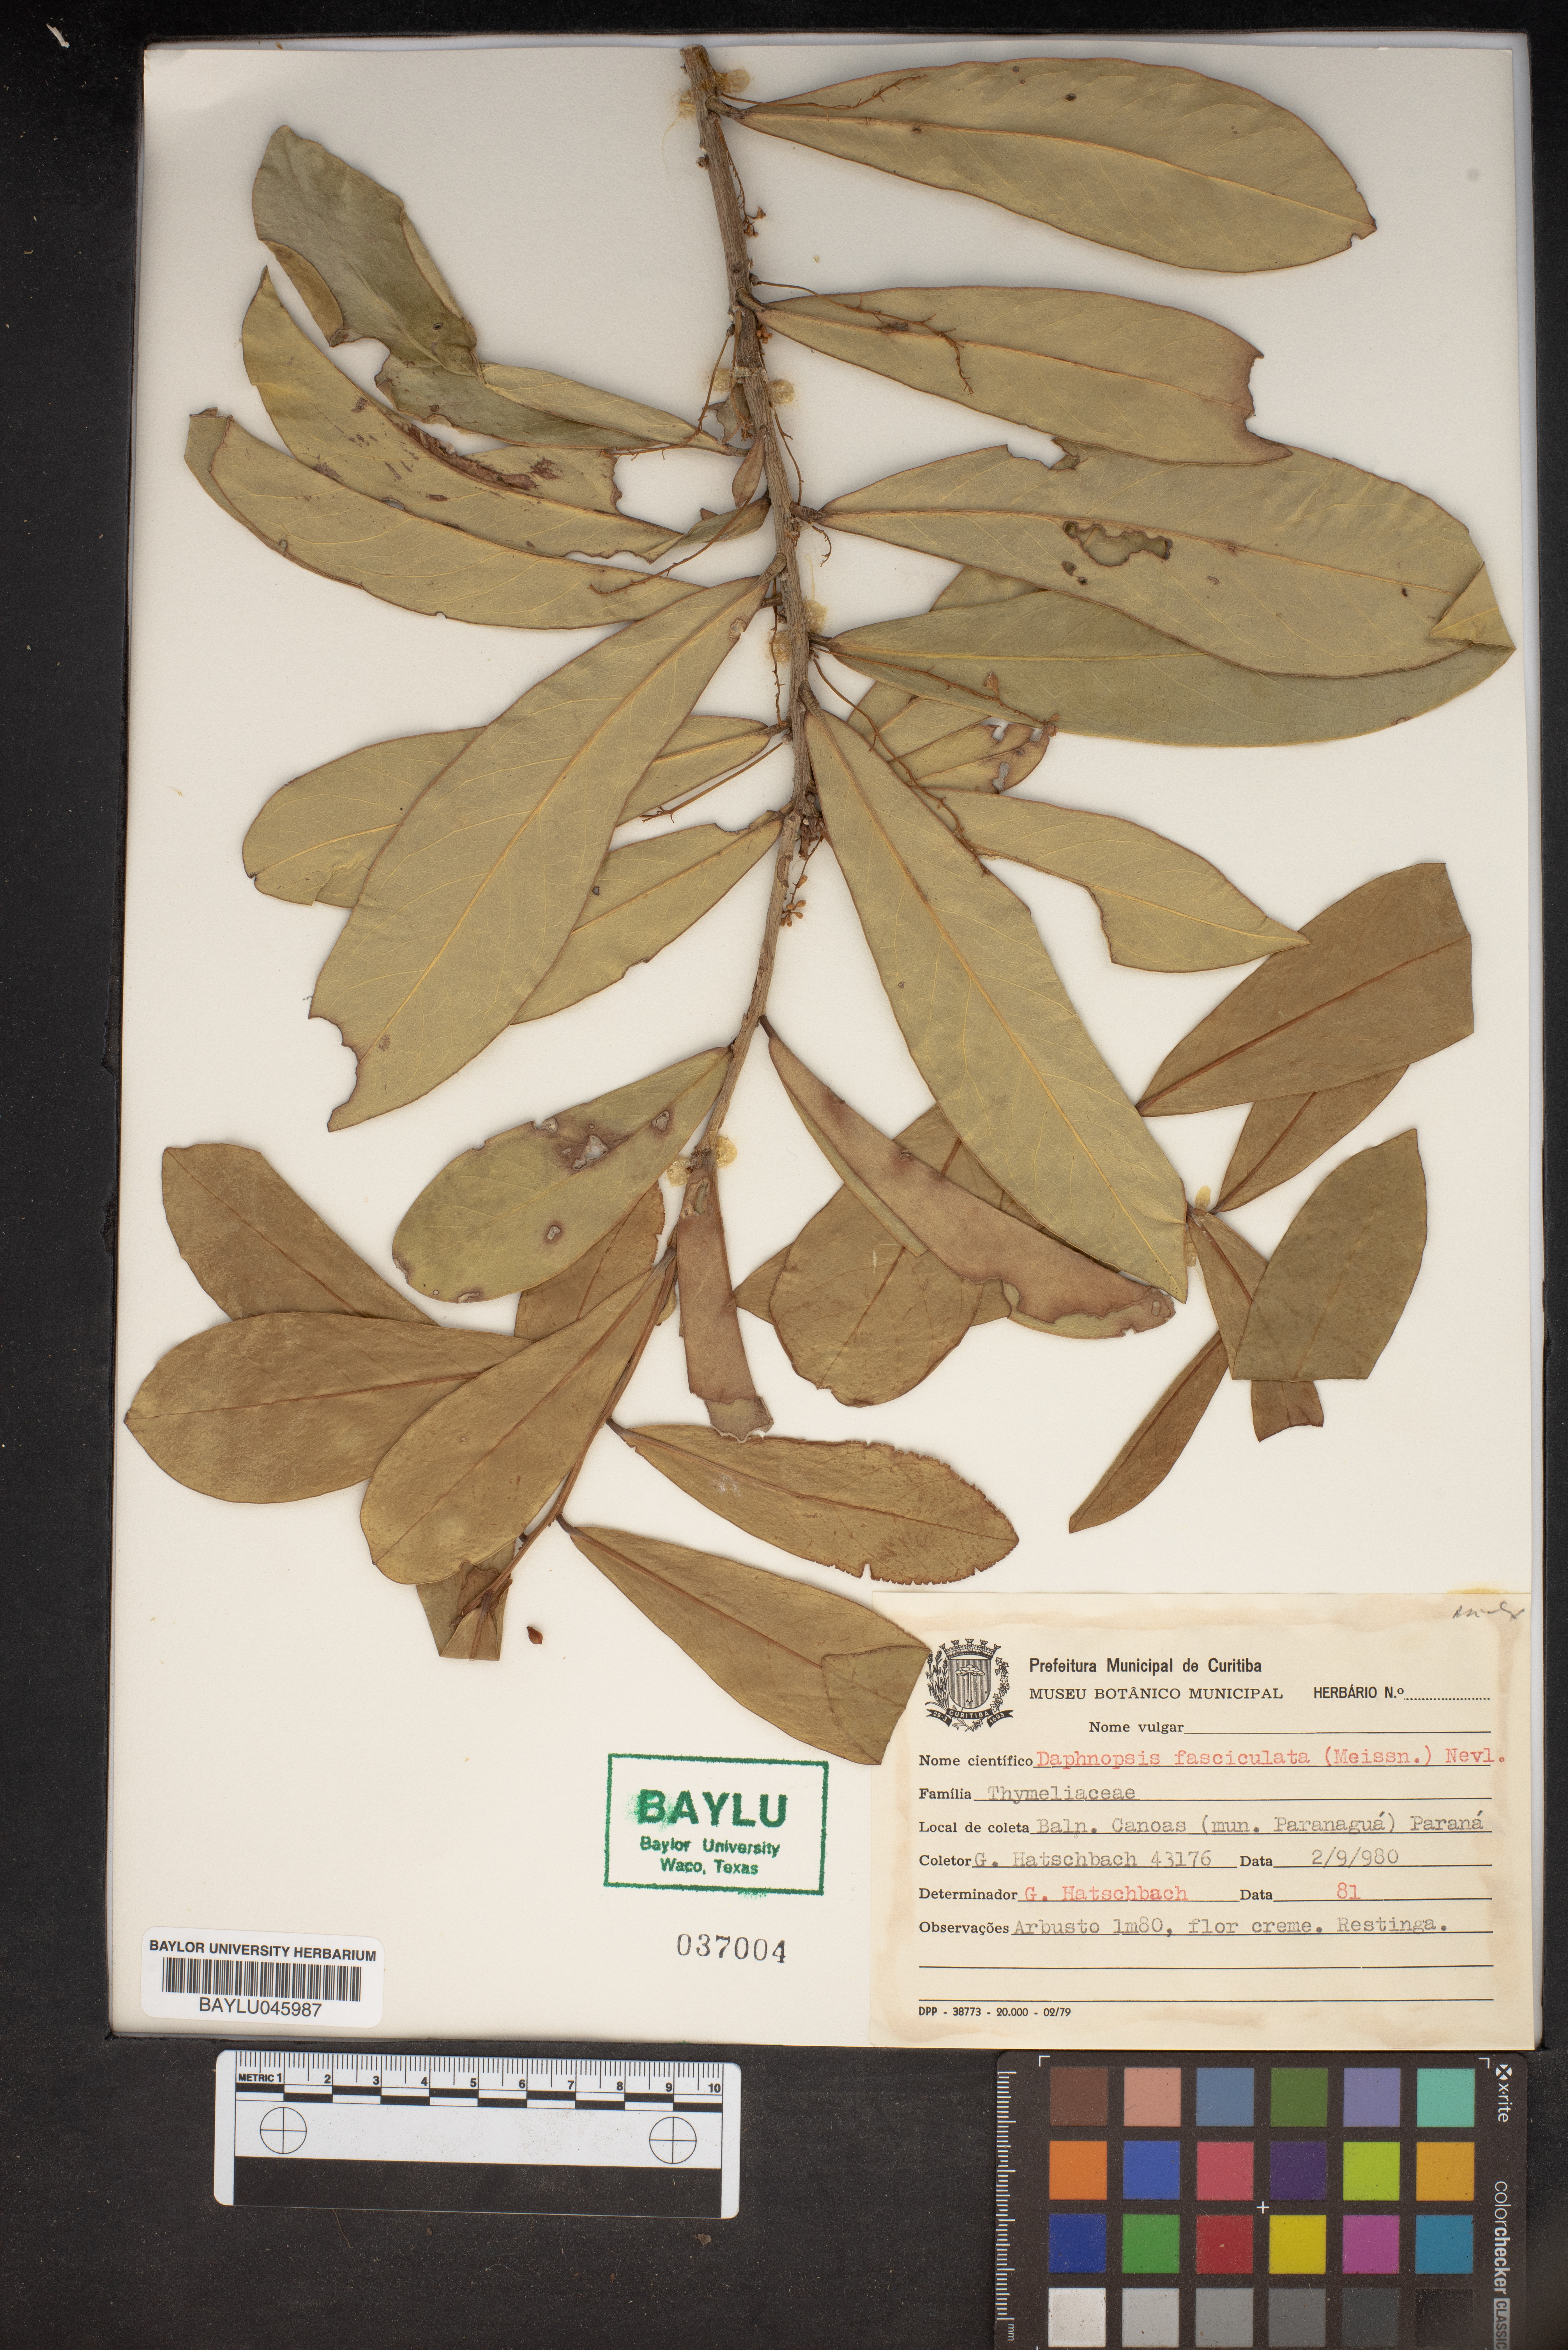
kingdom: Plantae
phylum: Tracheophyta
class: Magnoliopsida
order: Malvales
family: Thymelaeaceae
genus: Daphnopsis
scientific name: Daphnopsis fasciculata
